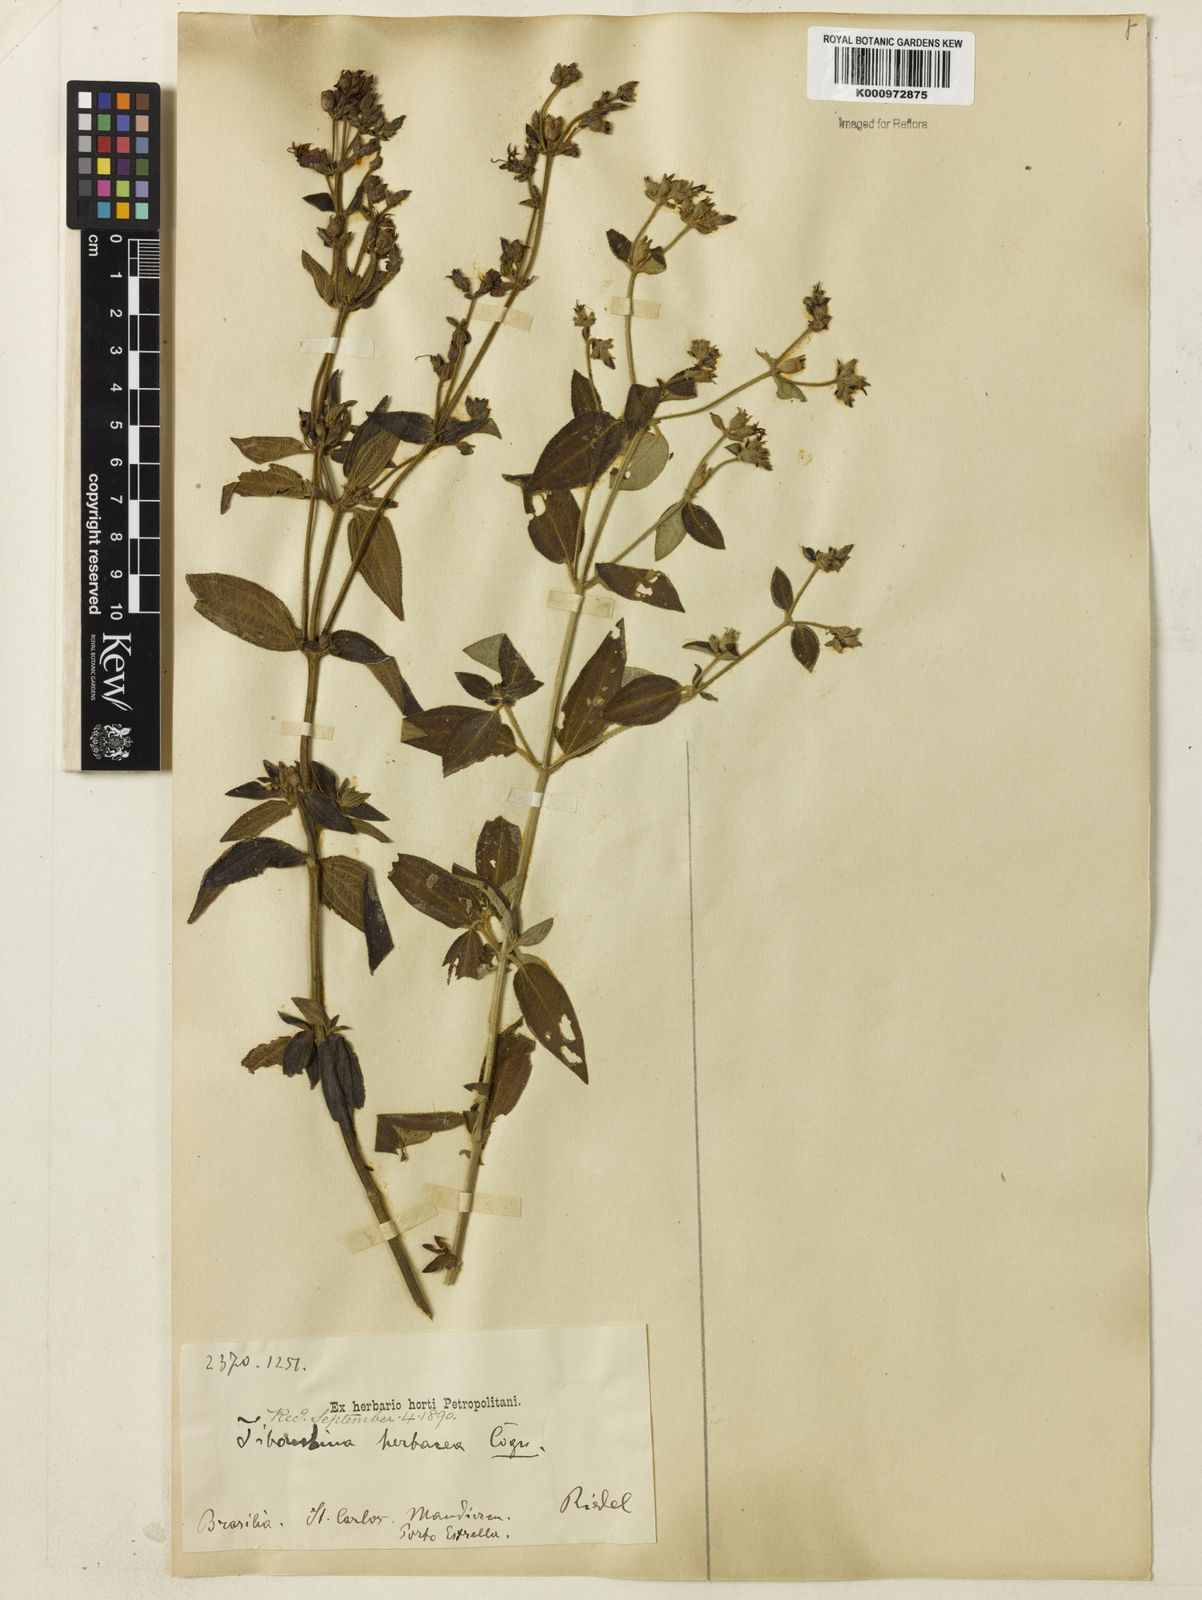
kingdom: Plantae
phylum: Tracheophyta
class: Magnoliopsida
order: Myrtales
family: Melastomataceae
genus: Chaetogastra
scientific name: Chaetogastra herbacea
